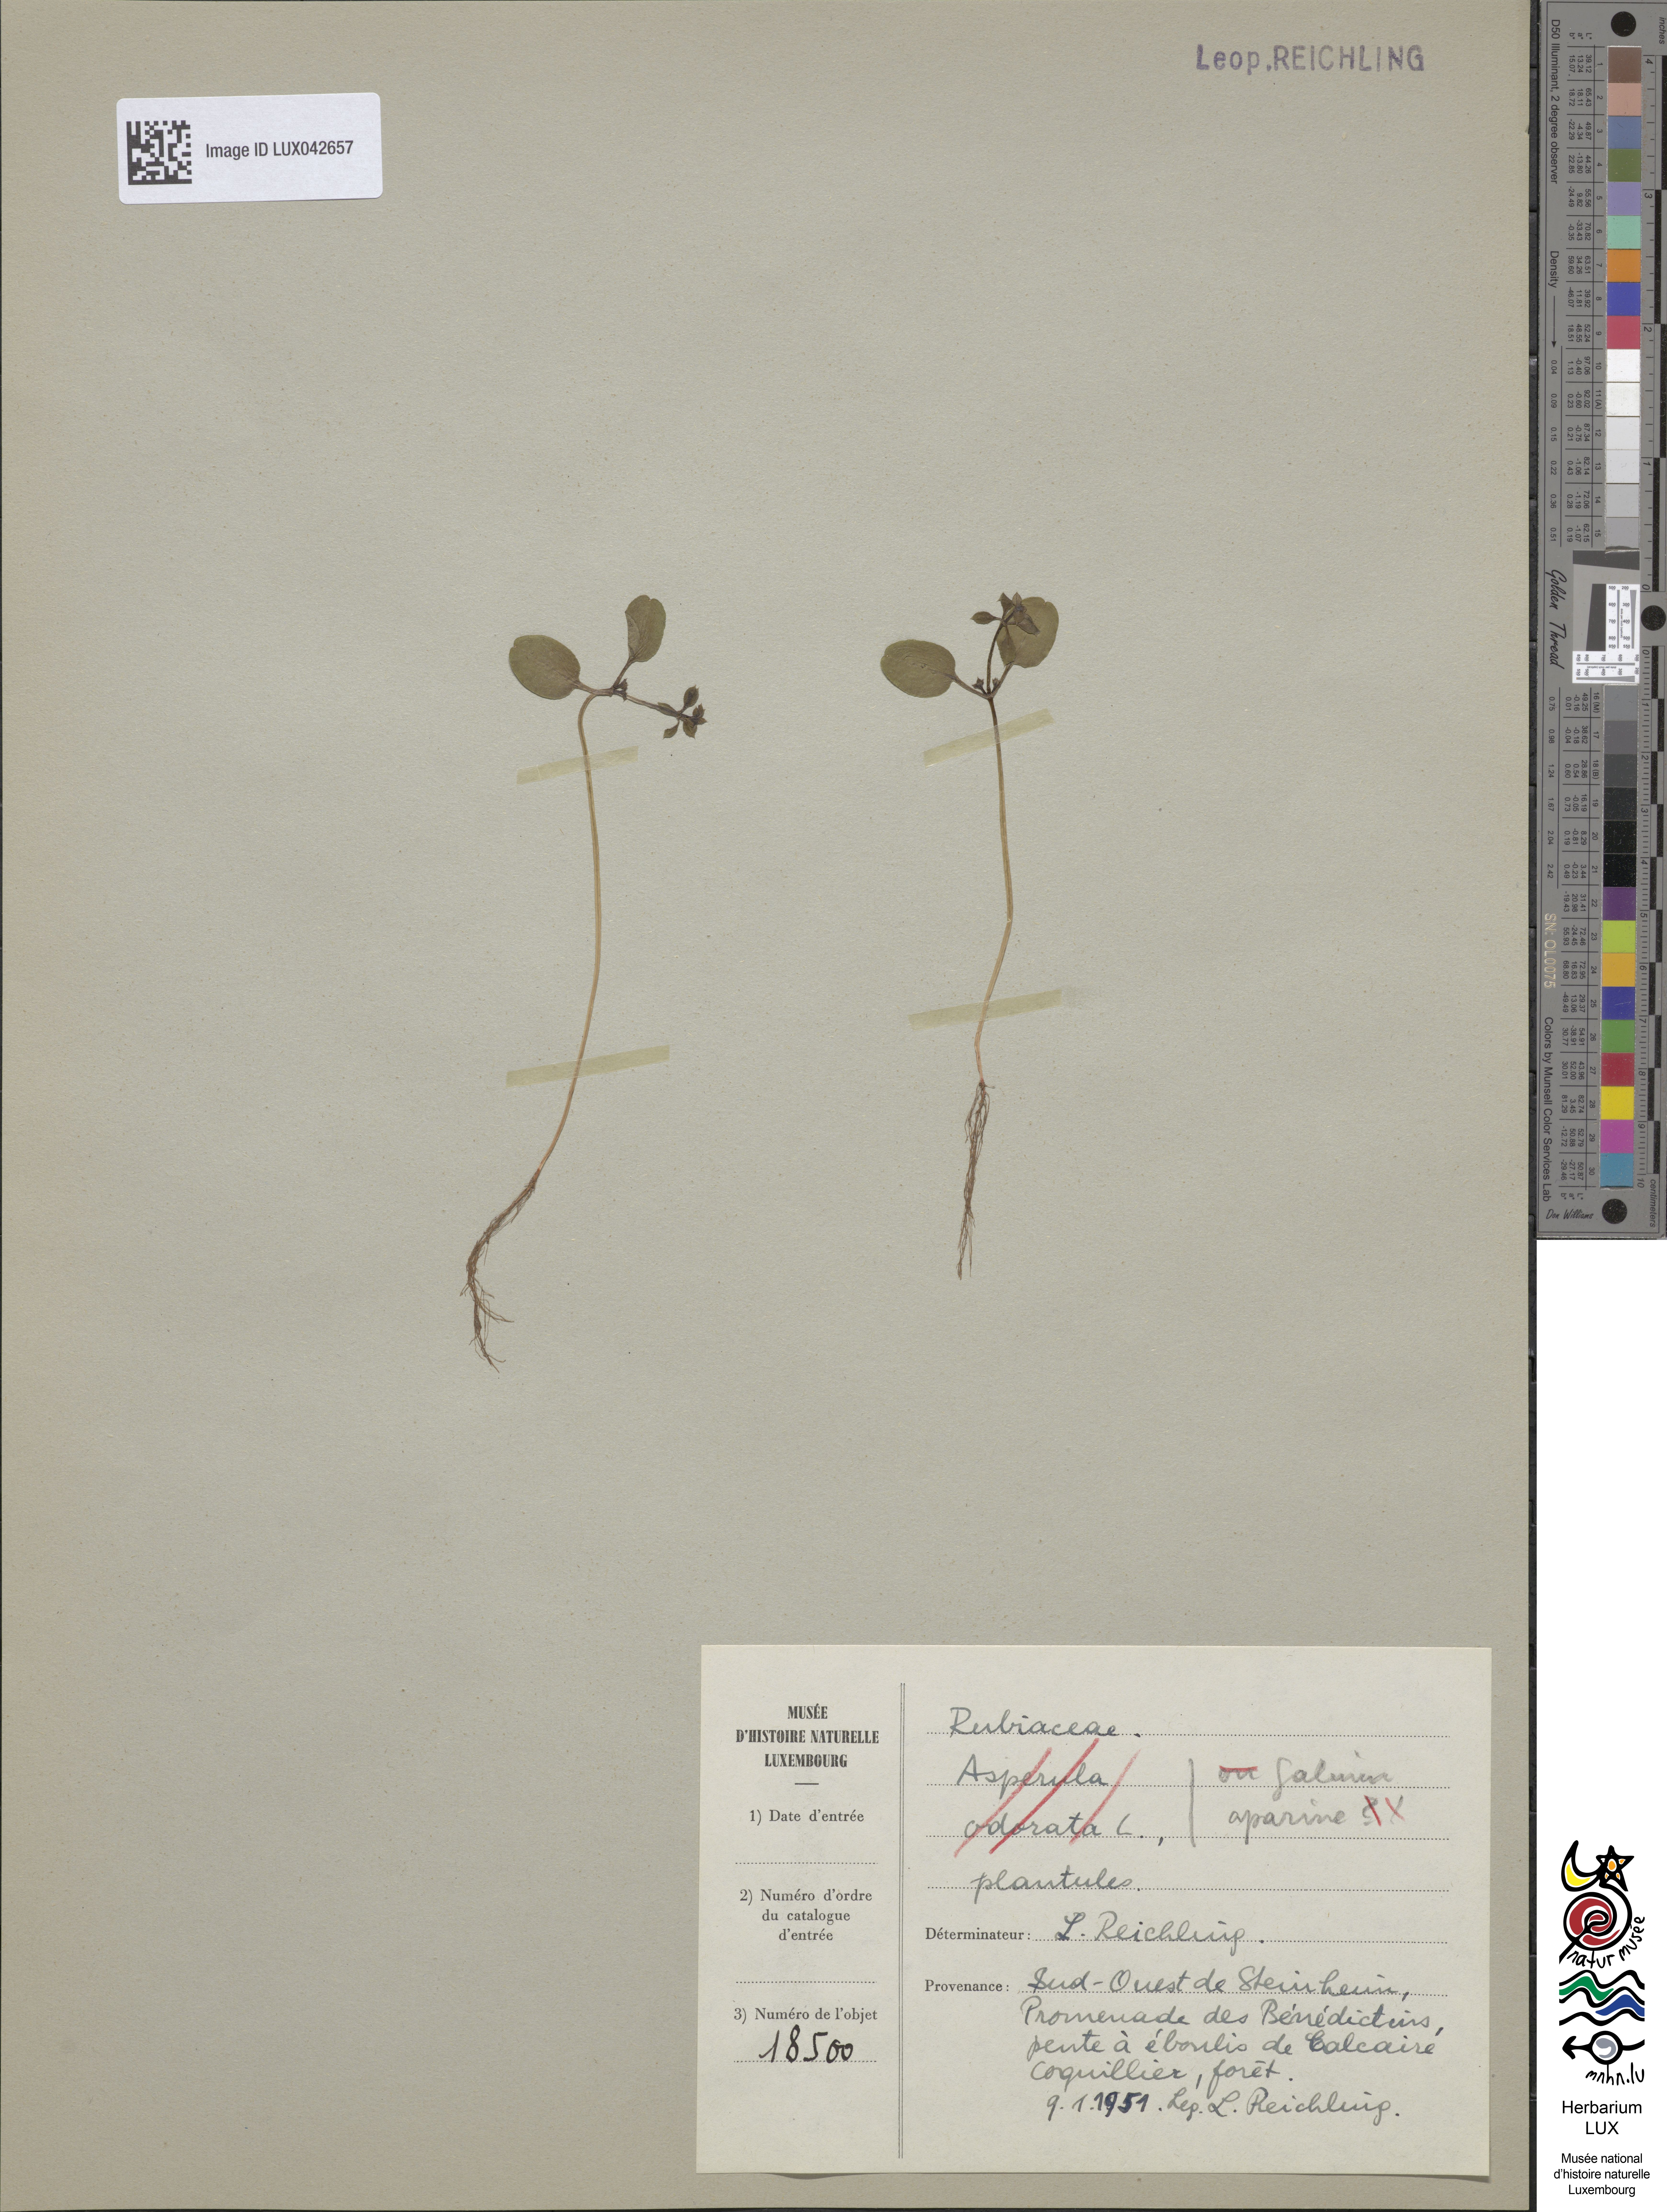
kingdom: Plantae
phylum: Tracheophyta
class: Magnoliopsida
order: Gentianales
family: Rubiaceae
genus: Galium
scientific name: Galium aparine
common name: Cleavers
